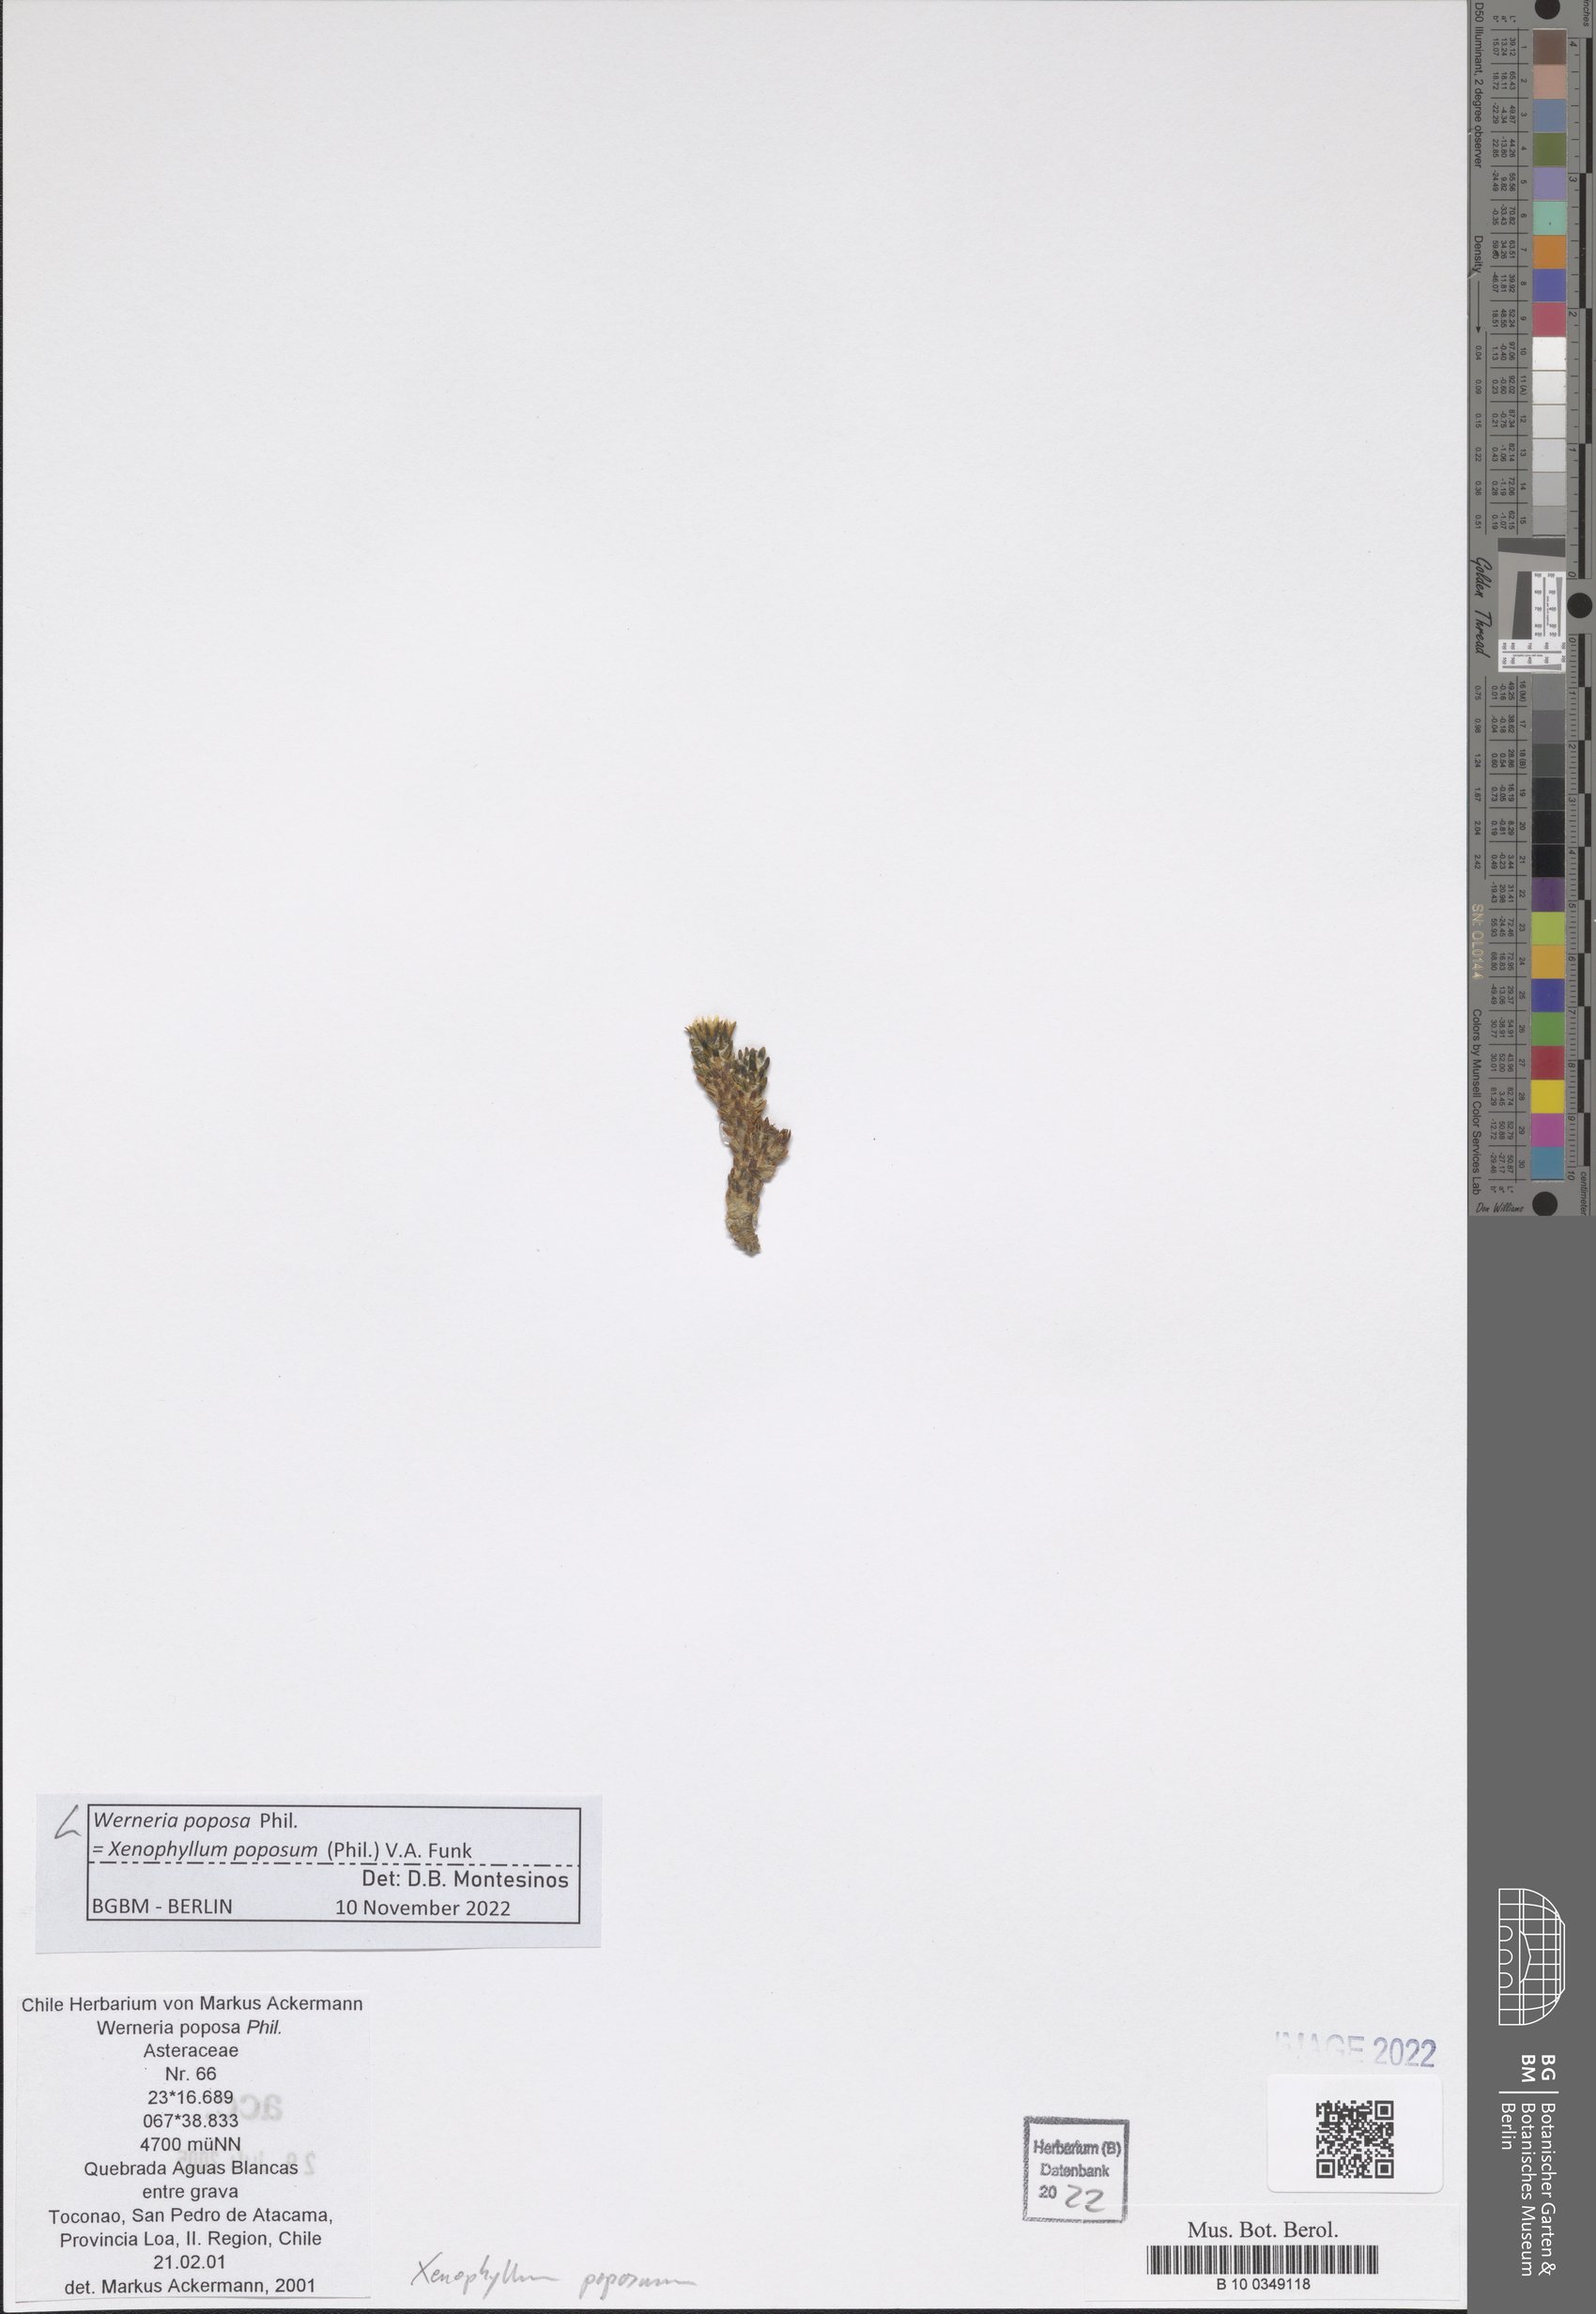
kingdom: Plantae
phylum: Tracheophyta
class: Magnoliopsida
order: Asterales
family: Asteraceae
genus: Werneria
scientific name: Werneria poposa
